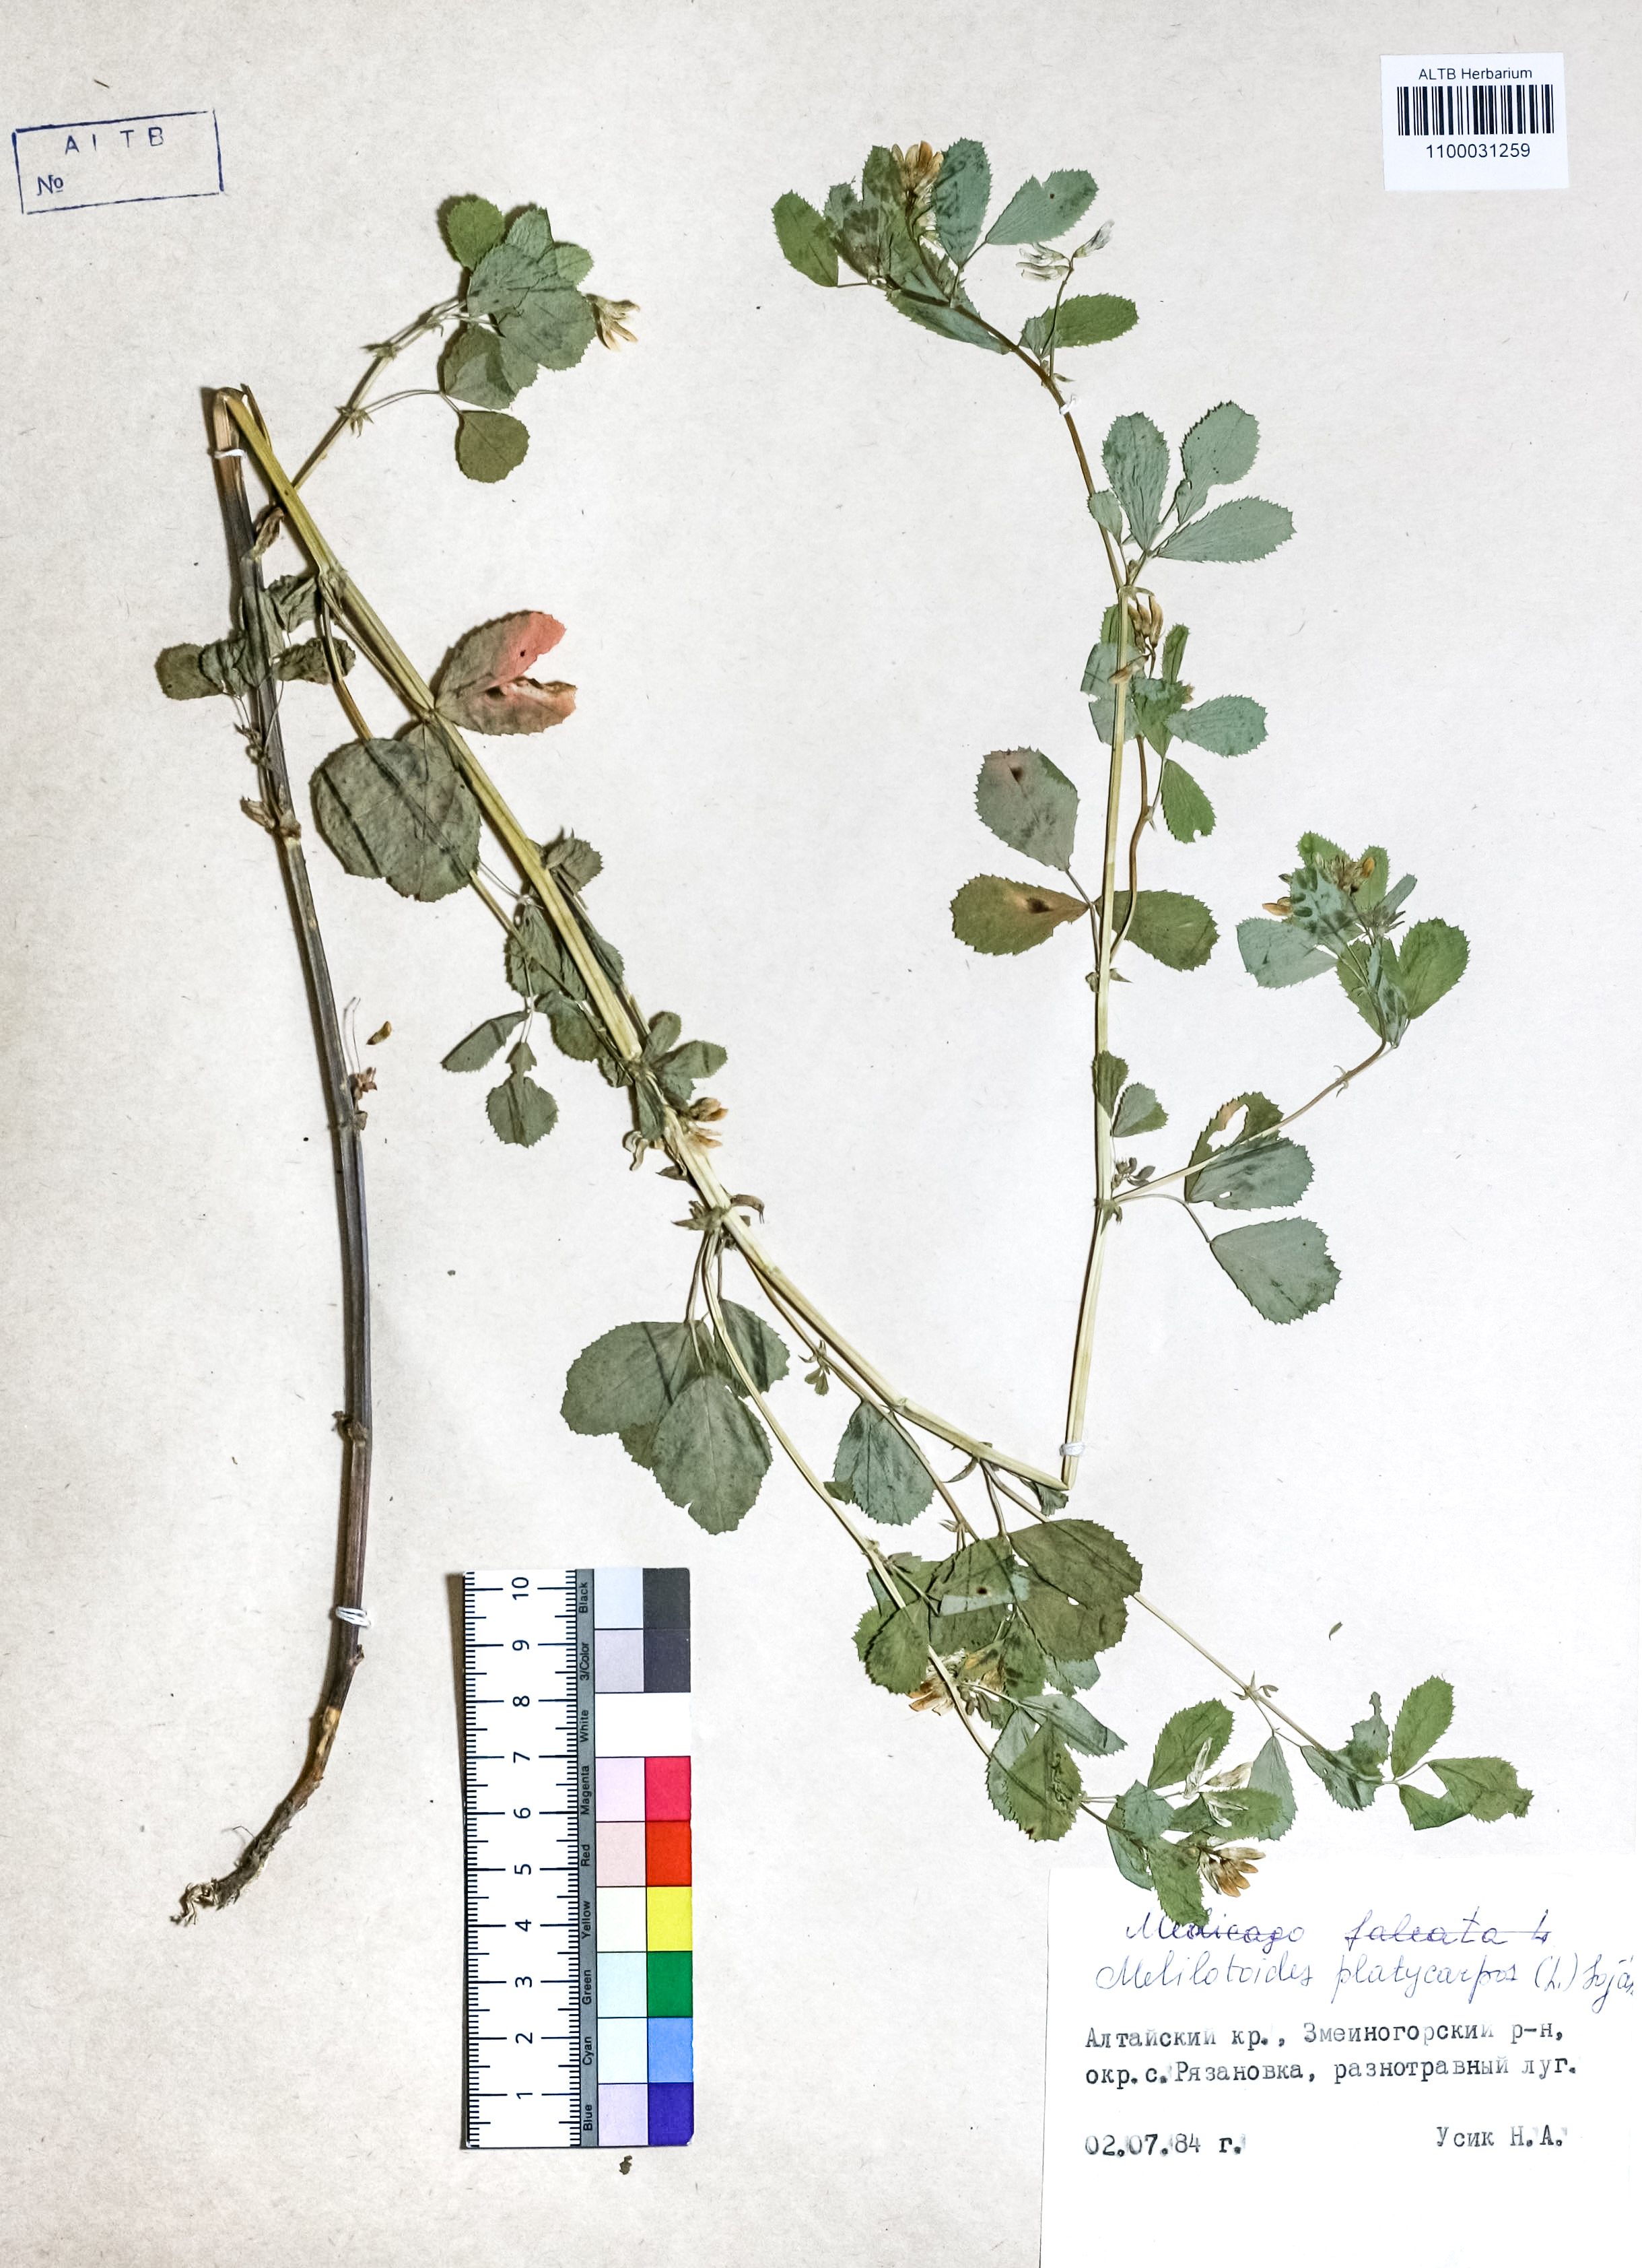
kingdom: Plantae
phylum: Tracheophyta
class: Magnoliopsida
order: Fabales
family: Fabaceae
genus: Medicago
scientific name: Medicago platycarpos
